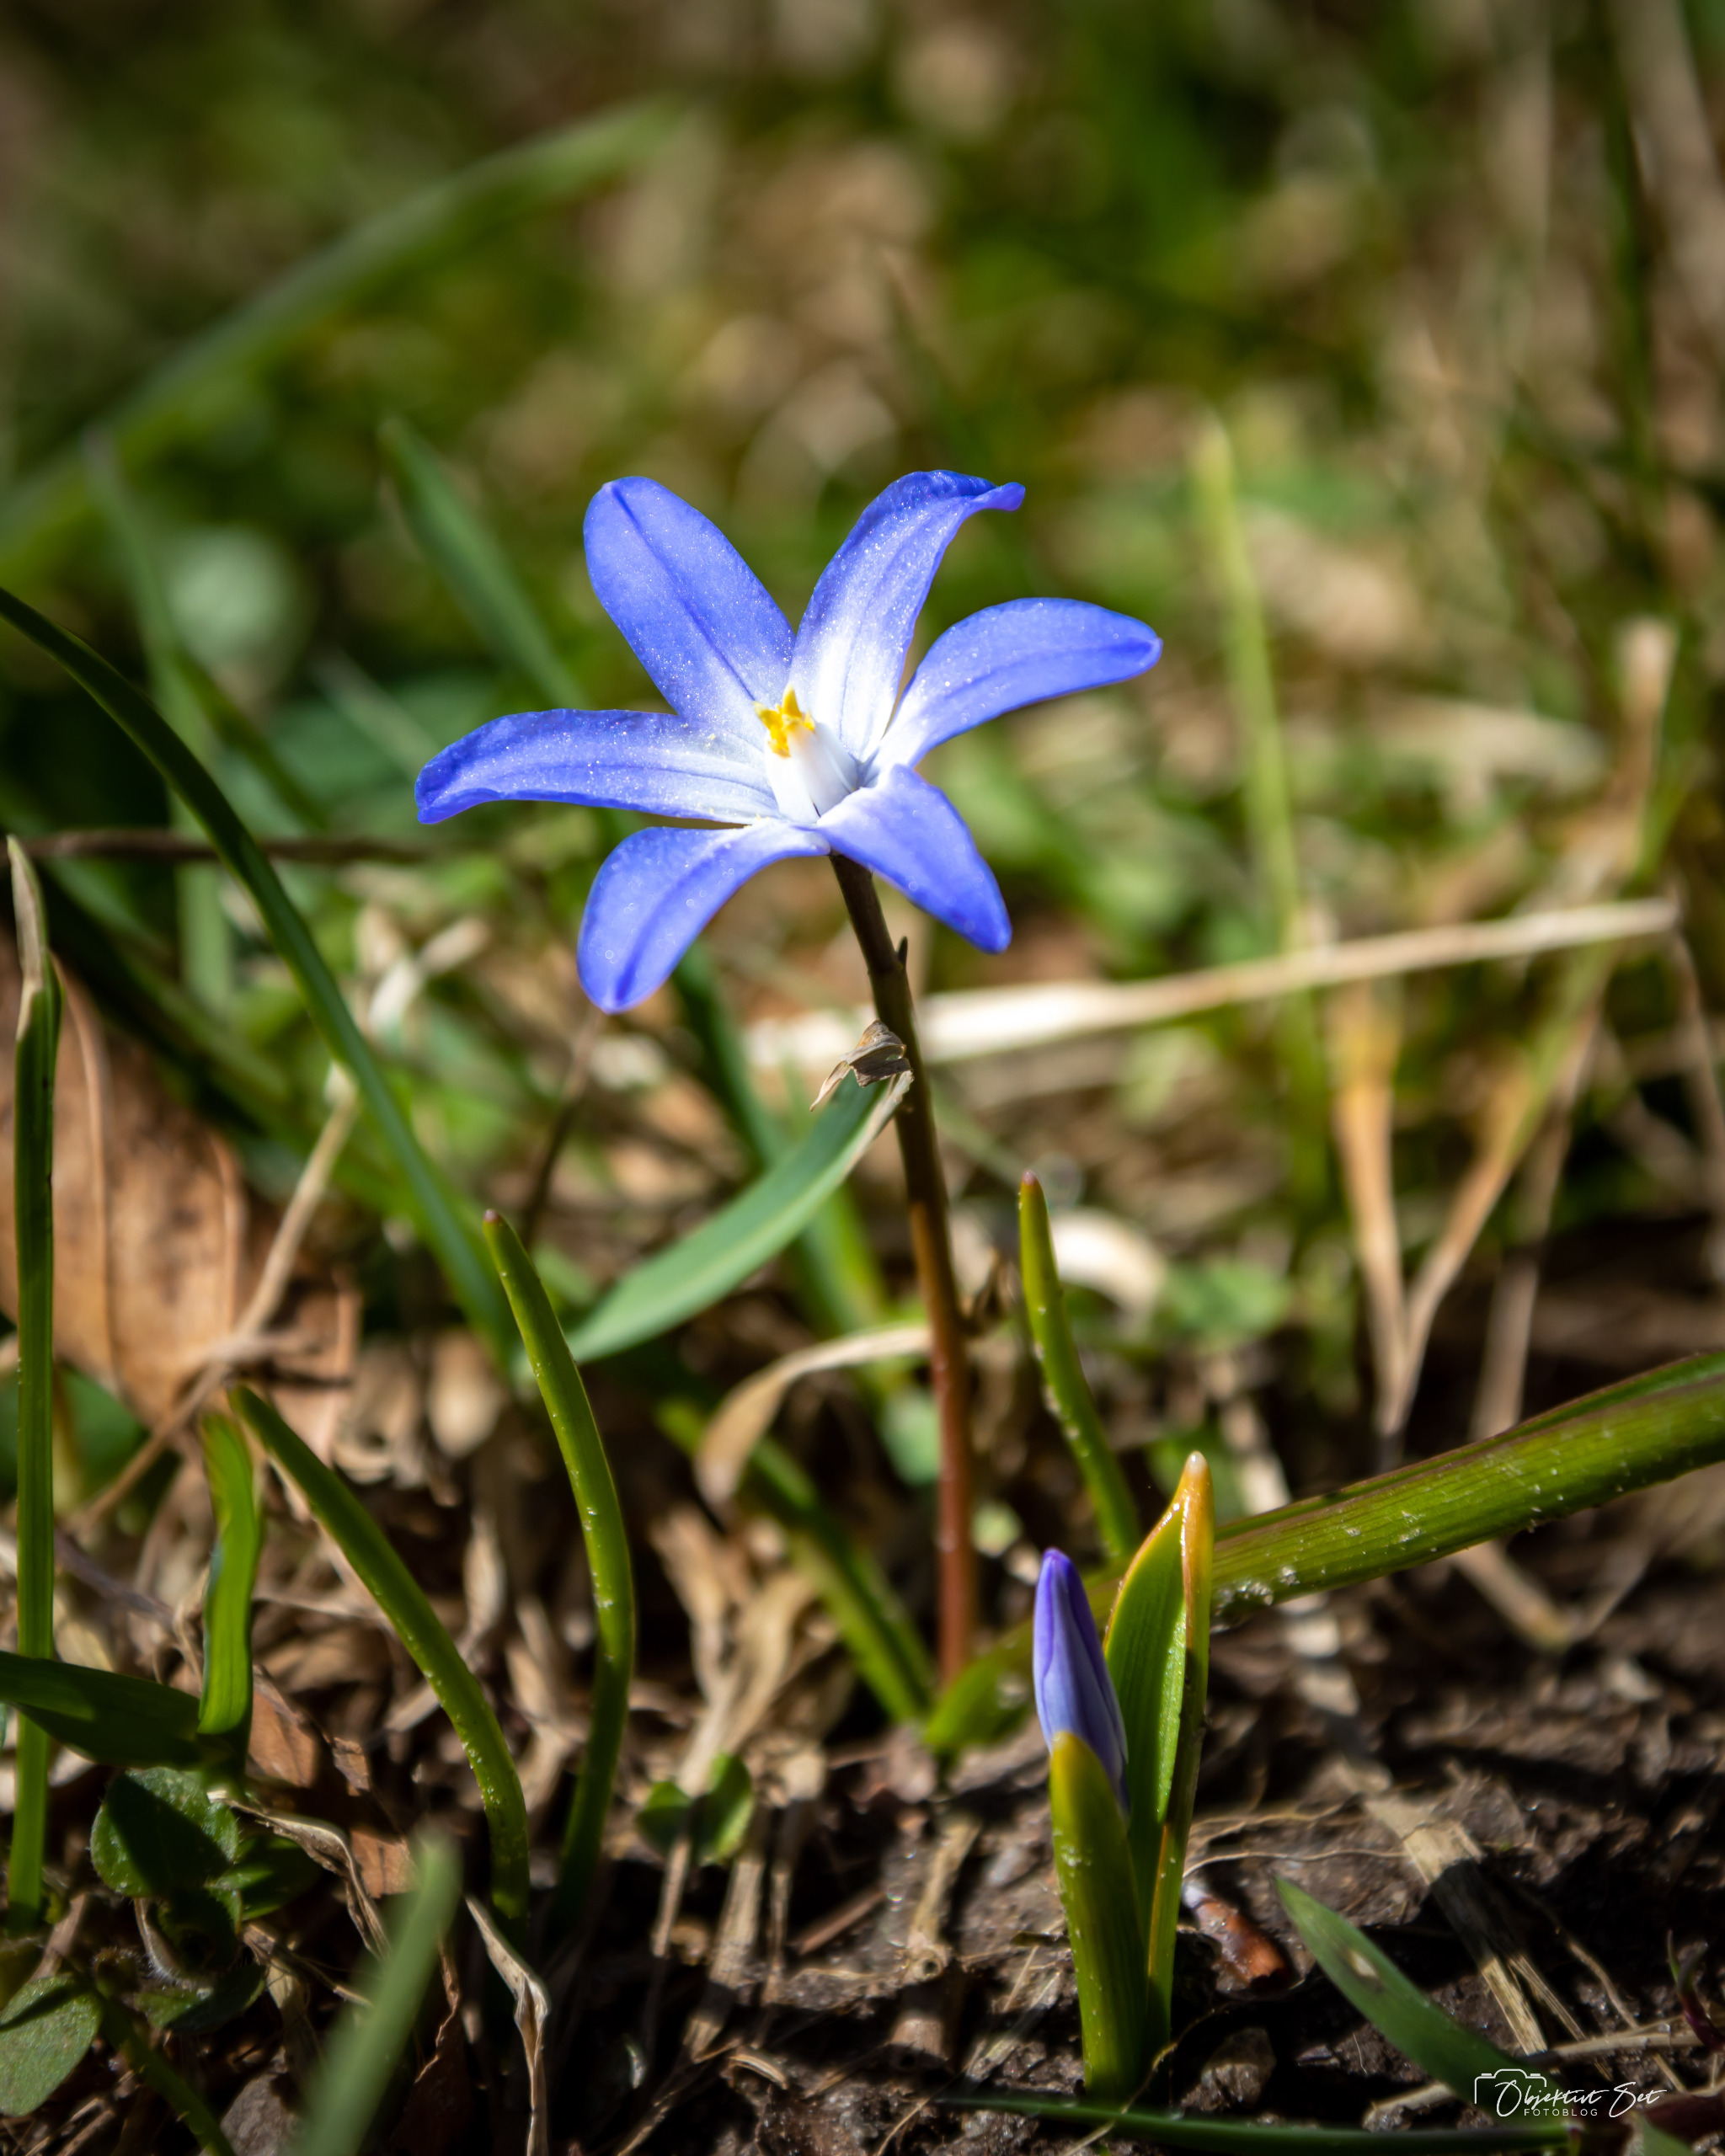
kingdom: Plantae
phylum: Tracheophyta
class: Liliopsida
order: Asparagales
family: Asparagaceae
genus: Scilla
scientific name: Scilla forbesii
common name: Almindelig snepryd
